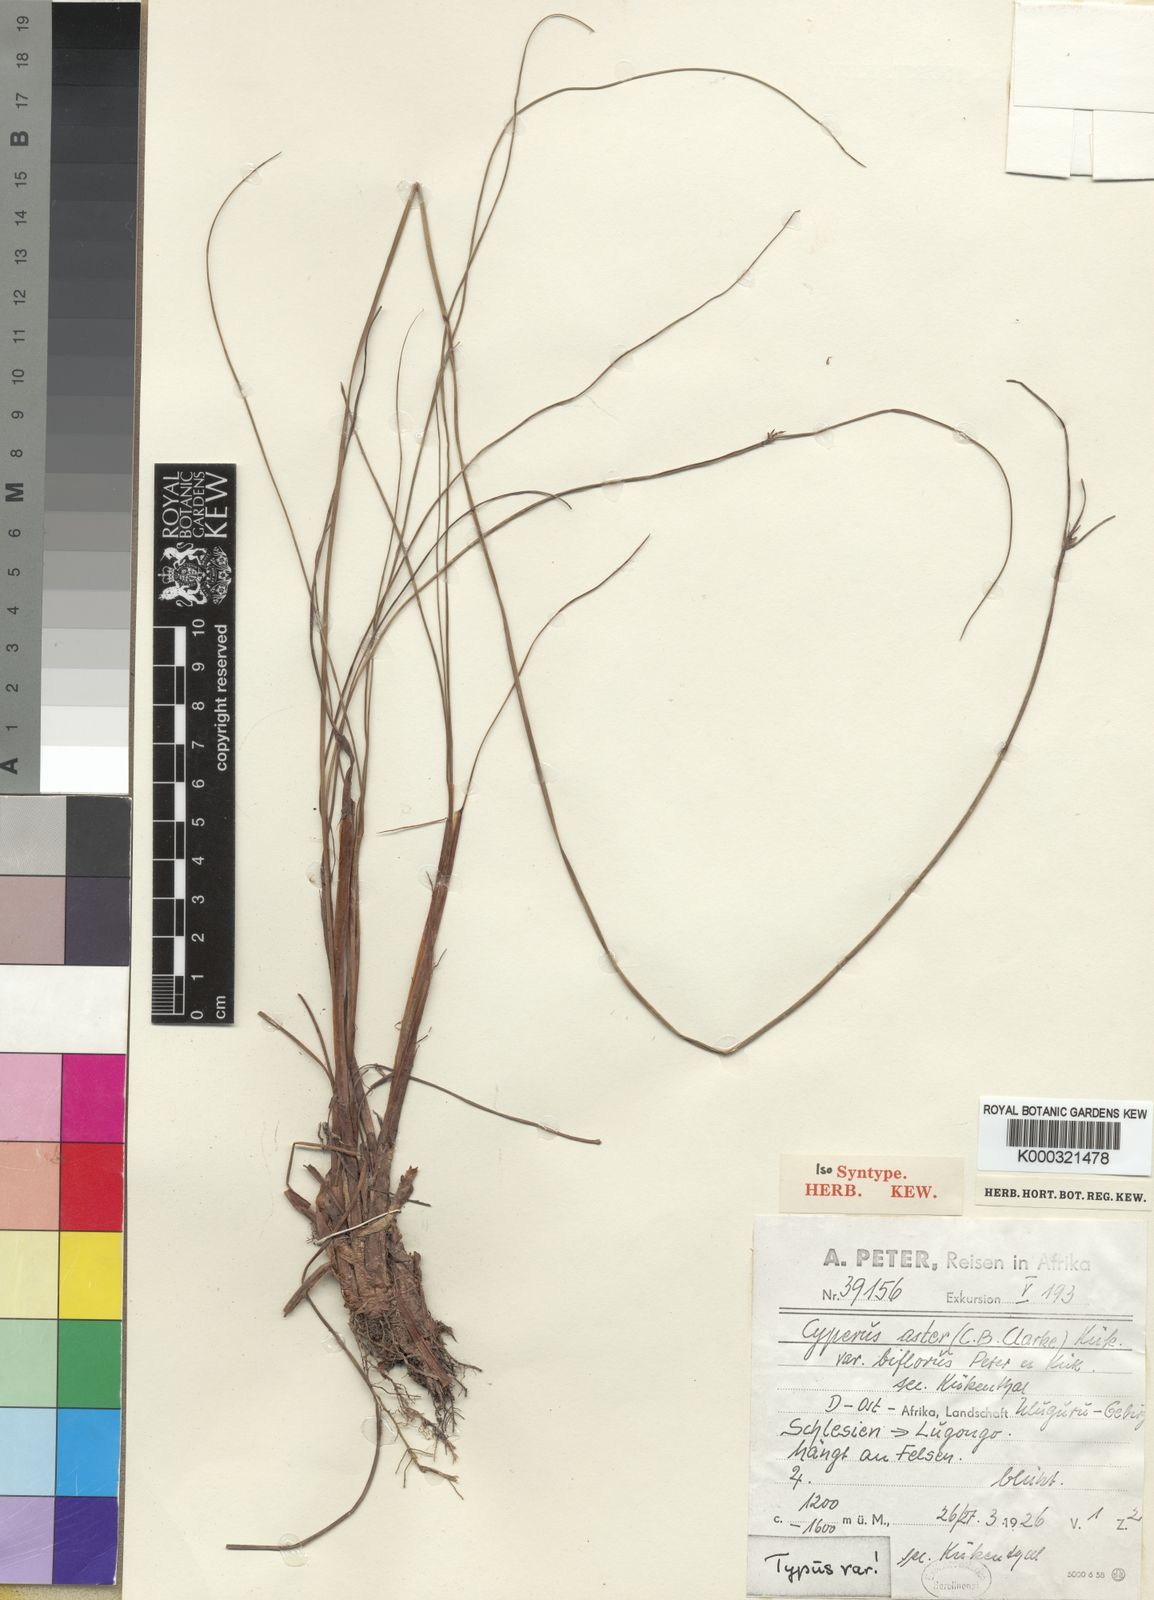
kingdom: Plantae
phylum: Tracheophyta
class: Liliopsida
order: Poales
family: Cyperaceae
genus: Cyperus
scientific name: Cyperus
